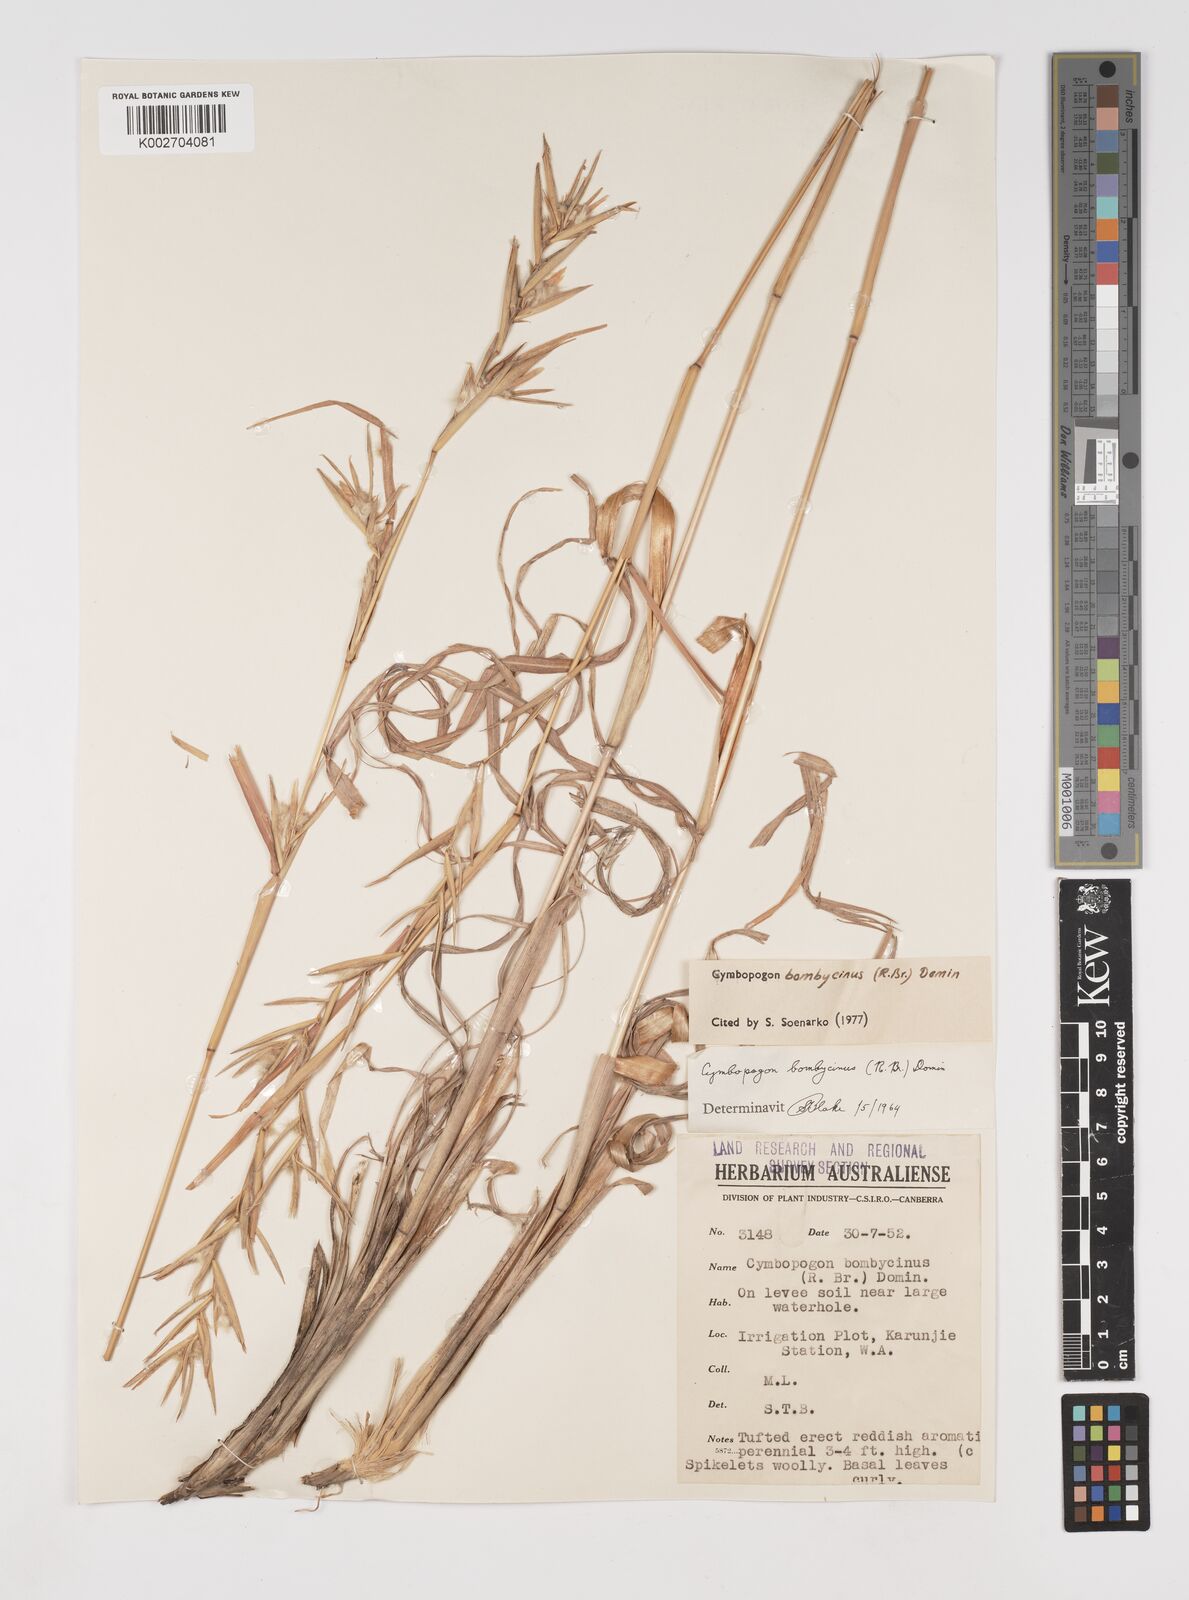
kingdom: Plantae
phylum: Tracheophyta
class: Liliopsida
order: Poales
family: Poaceae
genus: Cymbopogon
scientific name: Cymbopogon bombycinus
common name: Citronella grass
